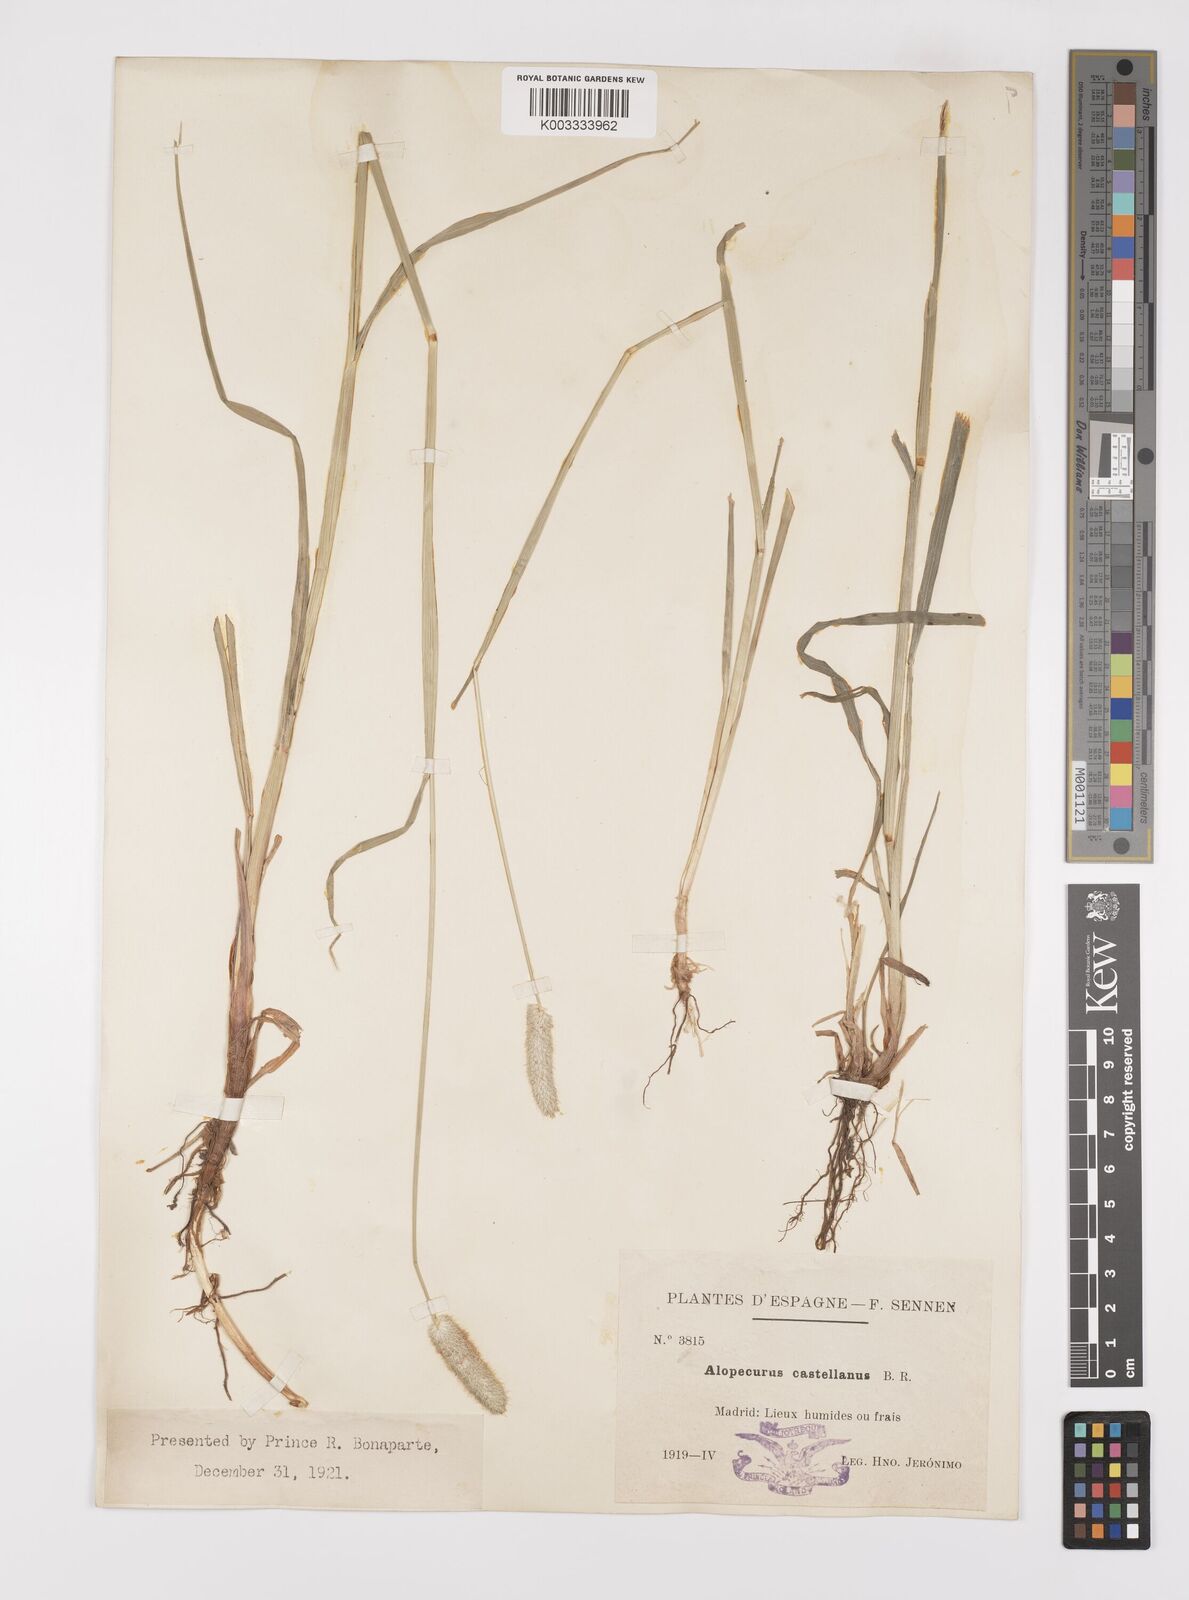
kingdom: Plantae
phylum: Tracheophyta
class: Liliopsida
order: Poales
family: Poaceae
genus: Alopecurus
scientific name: Alopecurus arundinaceus
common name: Creeping meadow foxtail
